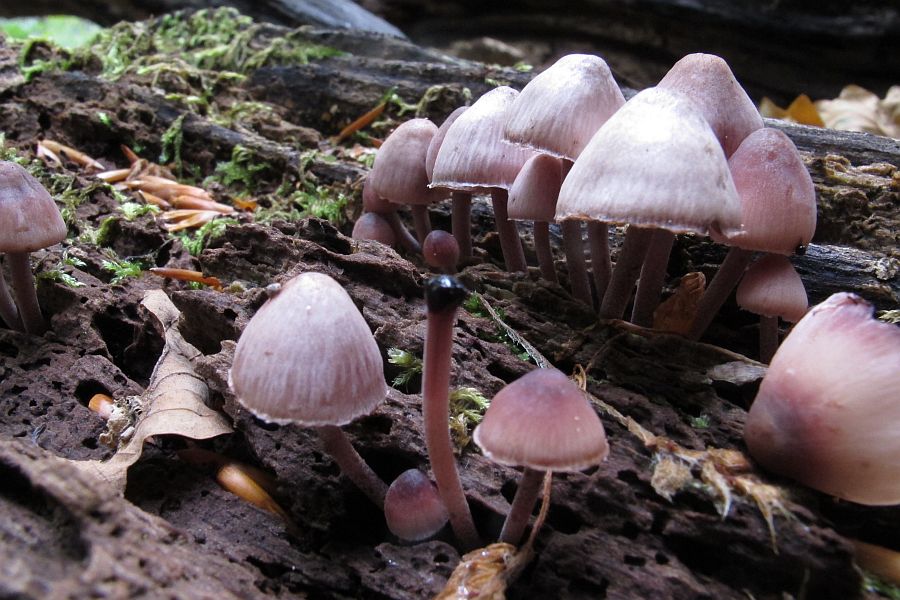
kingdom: Fungi
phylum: Basidiomycota
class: Agaricomycetes
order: Agaricales
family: Mycenaceae
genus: Mycena
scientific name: Mycena haematopus
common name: blødende huesvamp
